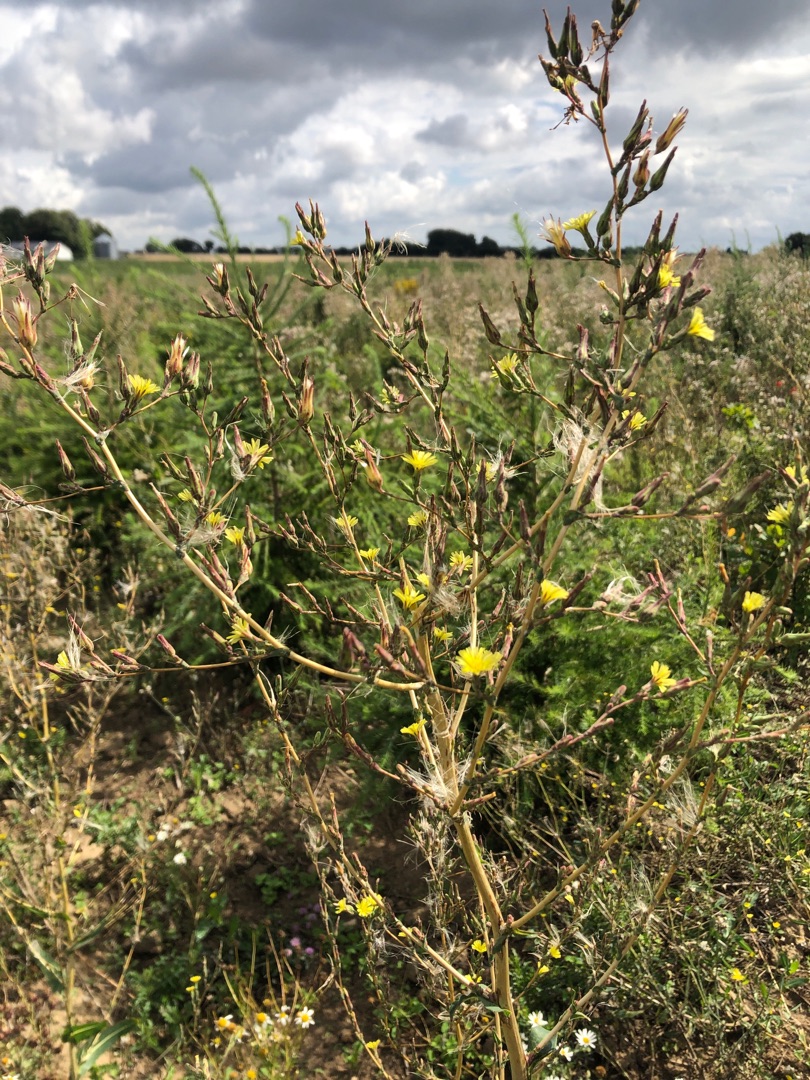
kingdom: Plantae
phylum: Tracheophyta
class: Magnoliopsida
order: Asterales
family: Asteraceae
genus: Lactuca
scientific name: Lactuca serriola
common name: Tornet salat
